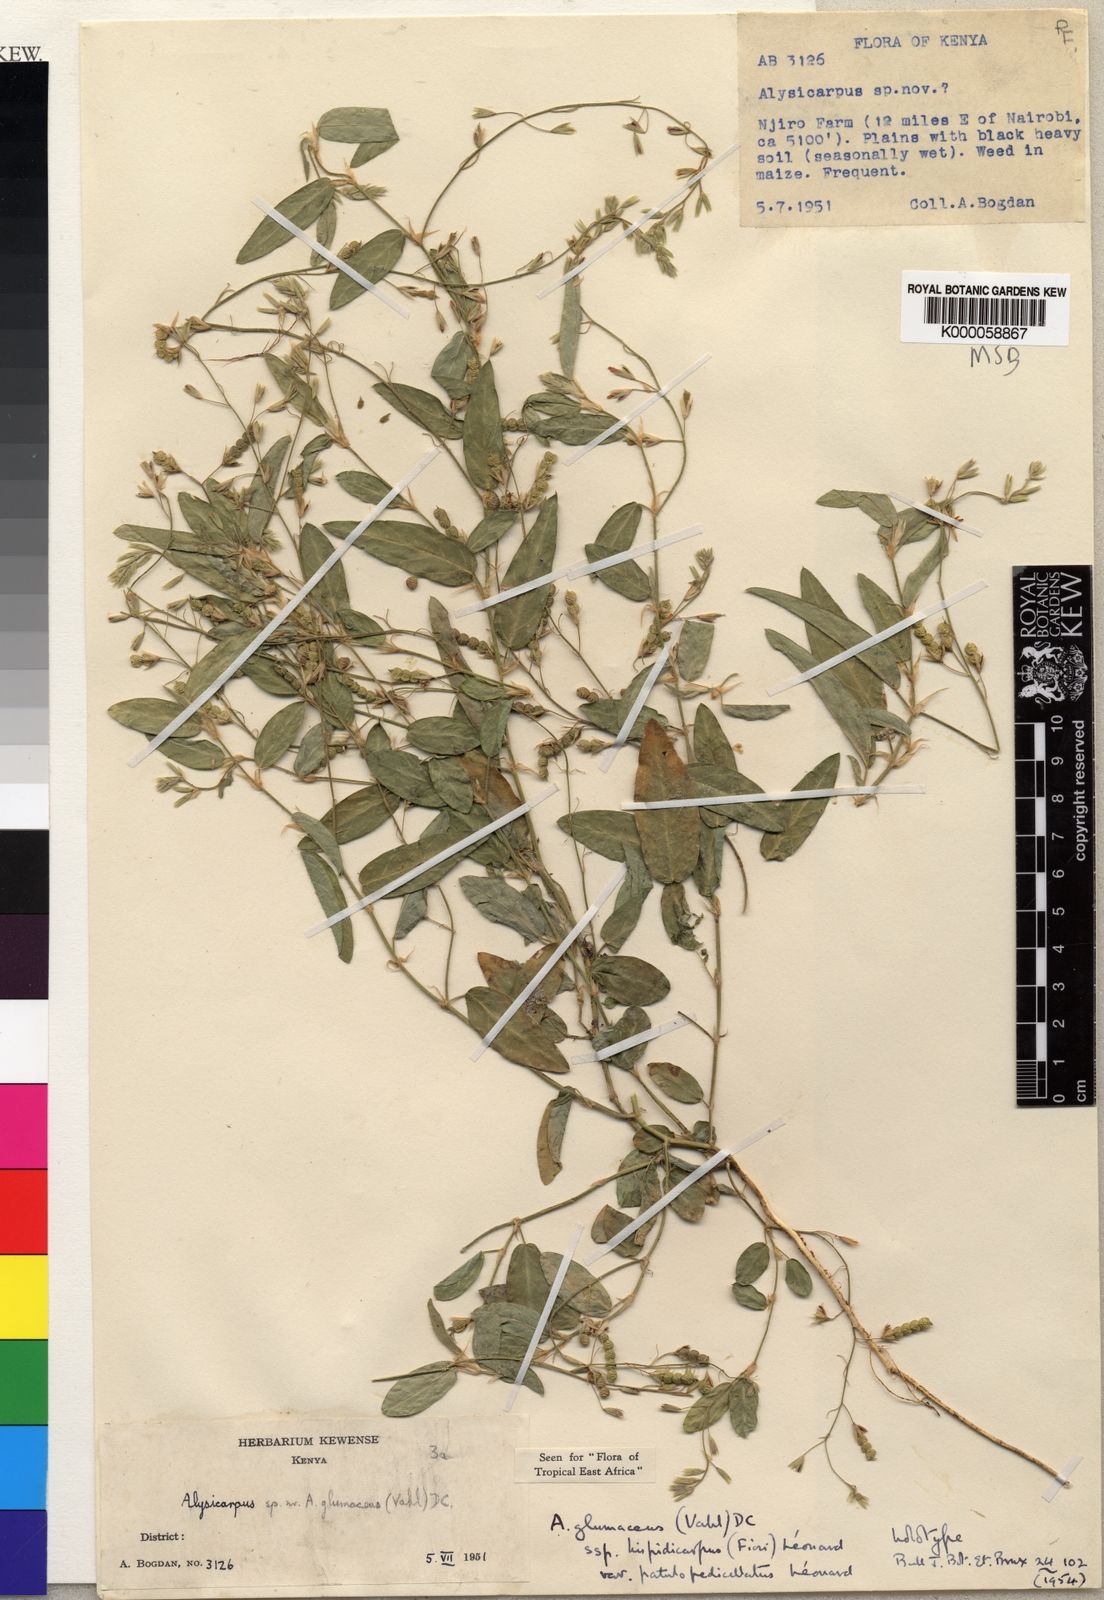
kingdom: Plantae
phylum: Tracheophyta
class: Magnoliopsida
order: Fabales
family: Fabaceae
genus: Alysicarpus
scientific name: Alysicarpus glumaceus
